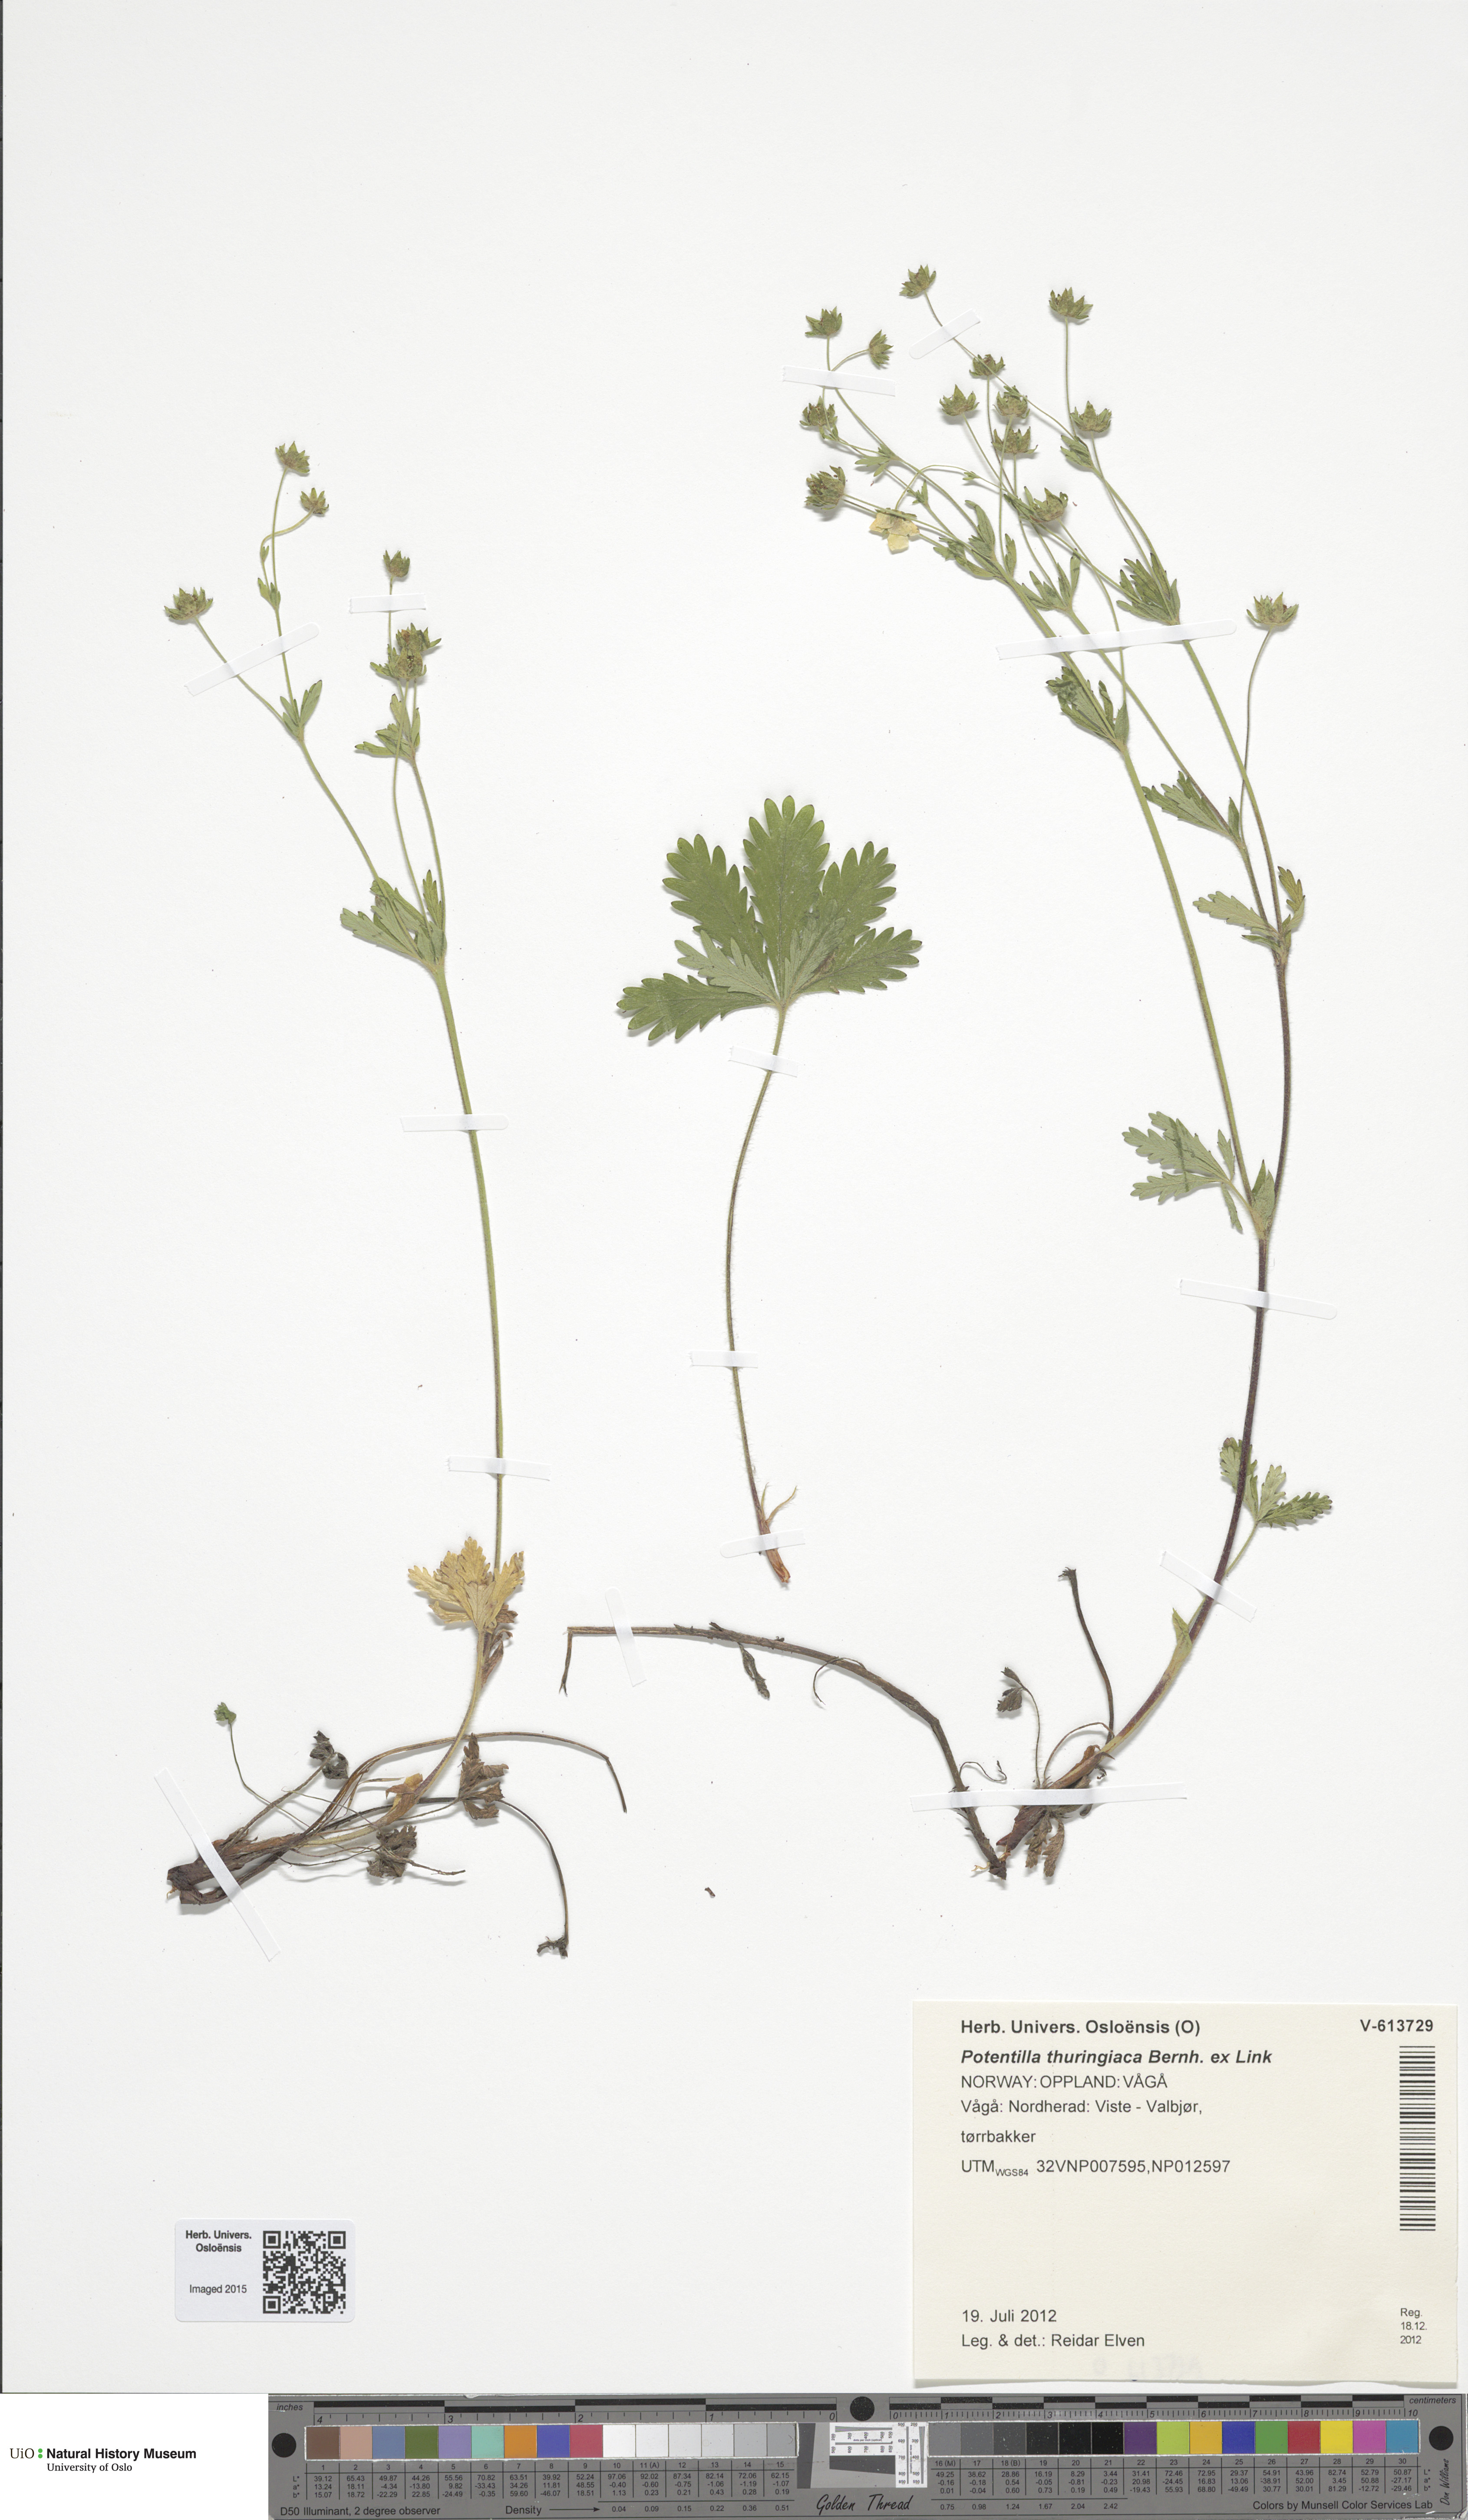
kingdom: Plantae
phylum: Tracheophyta
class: Magnoliopsida
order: Rosales
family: Rosaceae
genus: Potentilla
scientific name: Potentilla thuringiaca
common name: European cinquefoil
